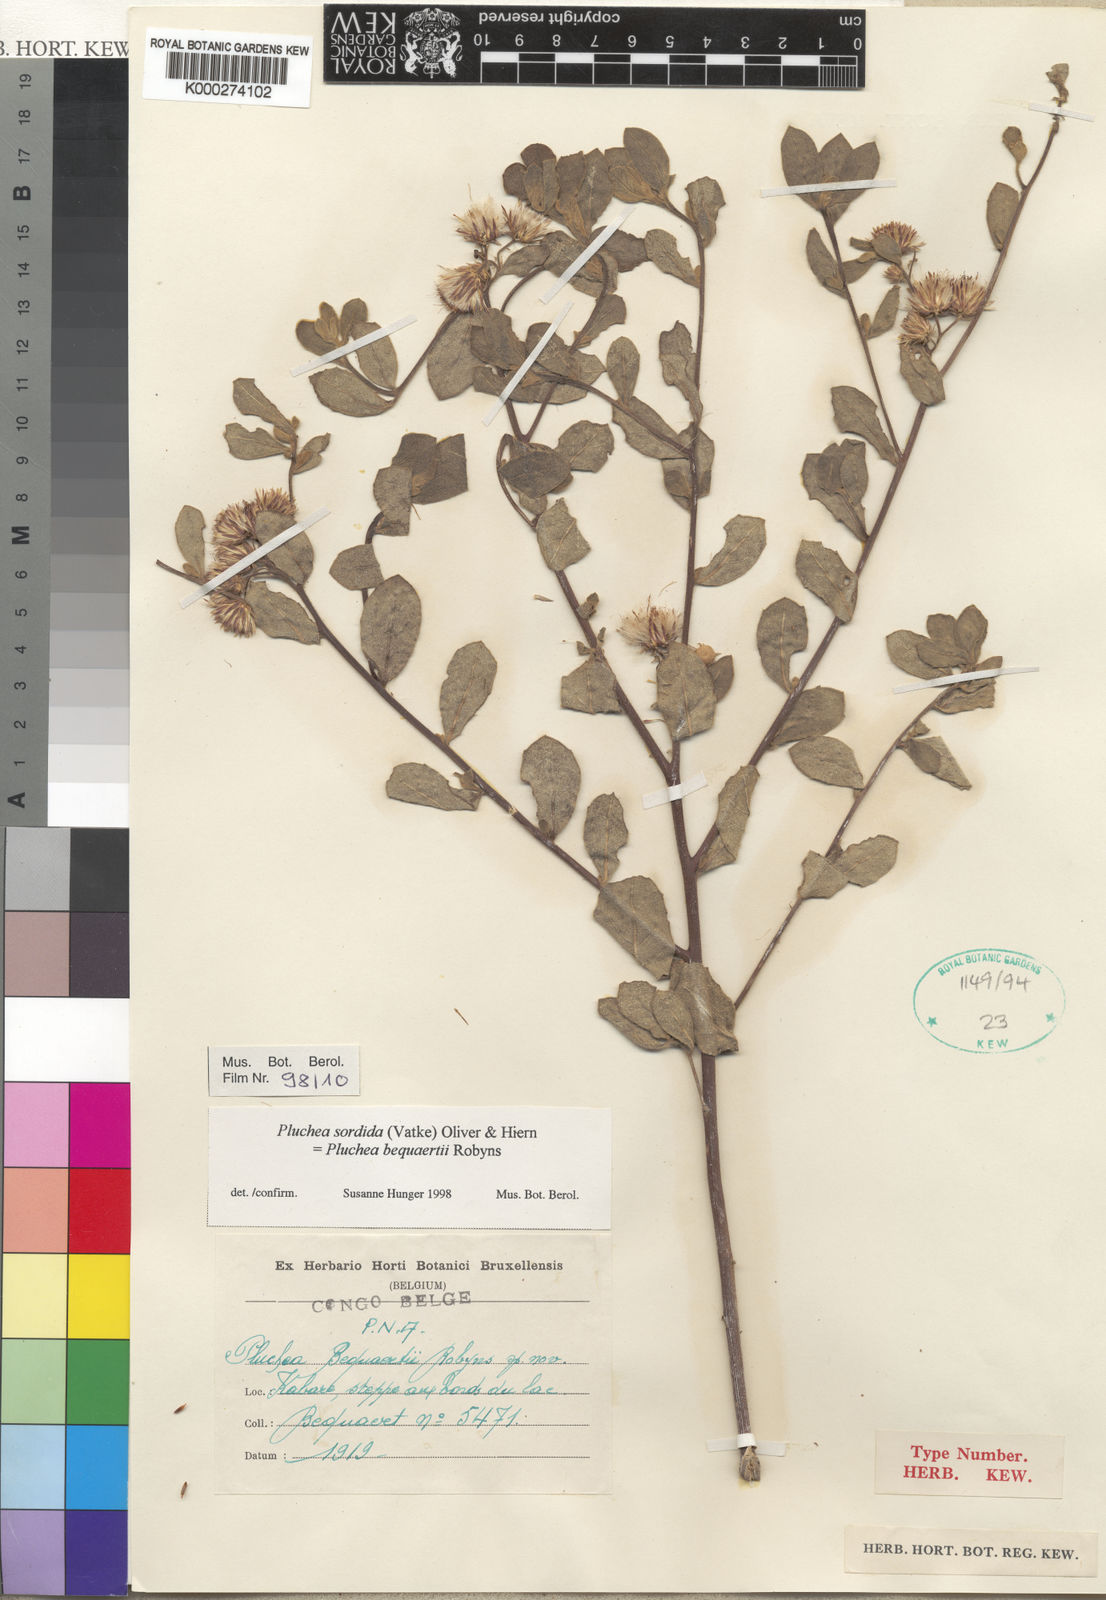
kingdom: Plantae
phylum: Tracheophyta
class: Magnoliopsida
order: Asterales
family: Asteraceae
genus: Pluchea
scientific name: Pluchea sordida
